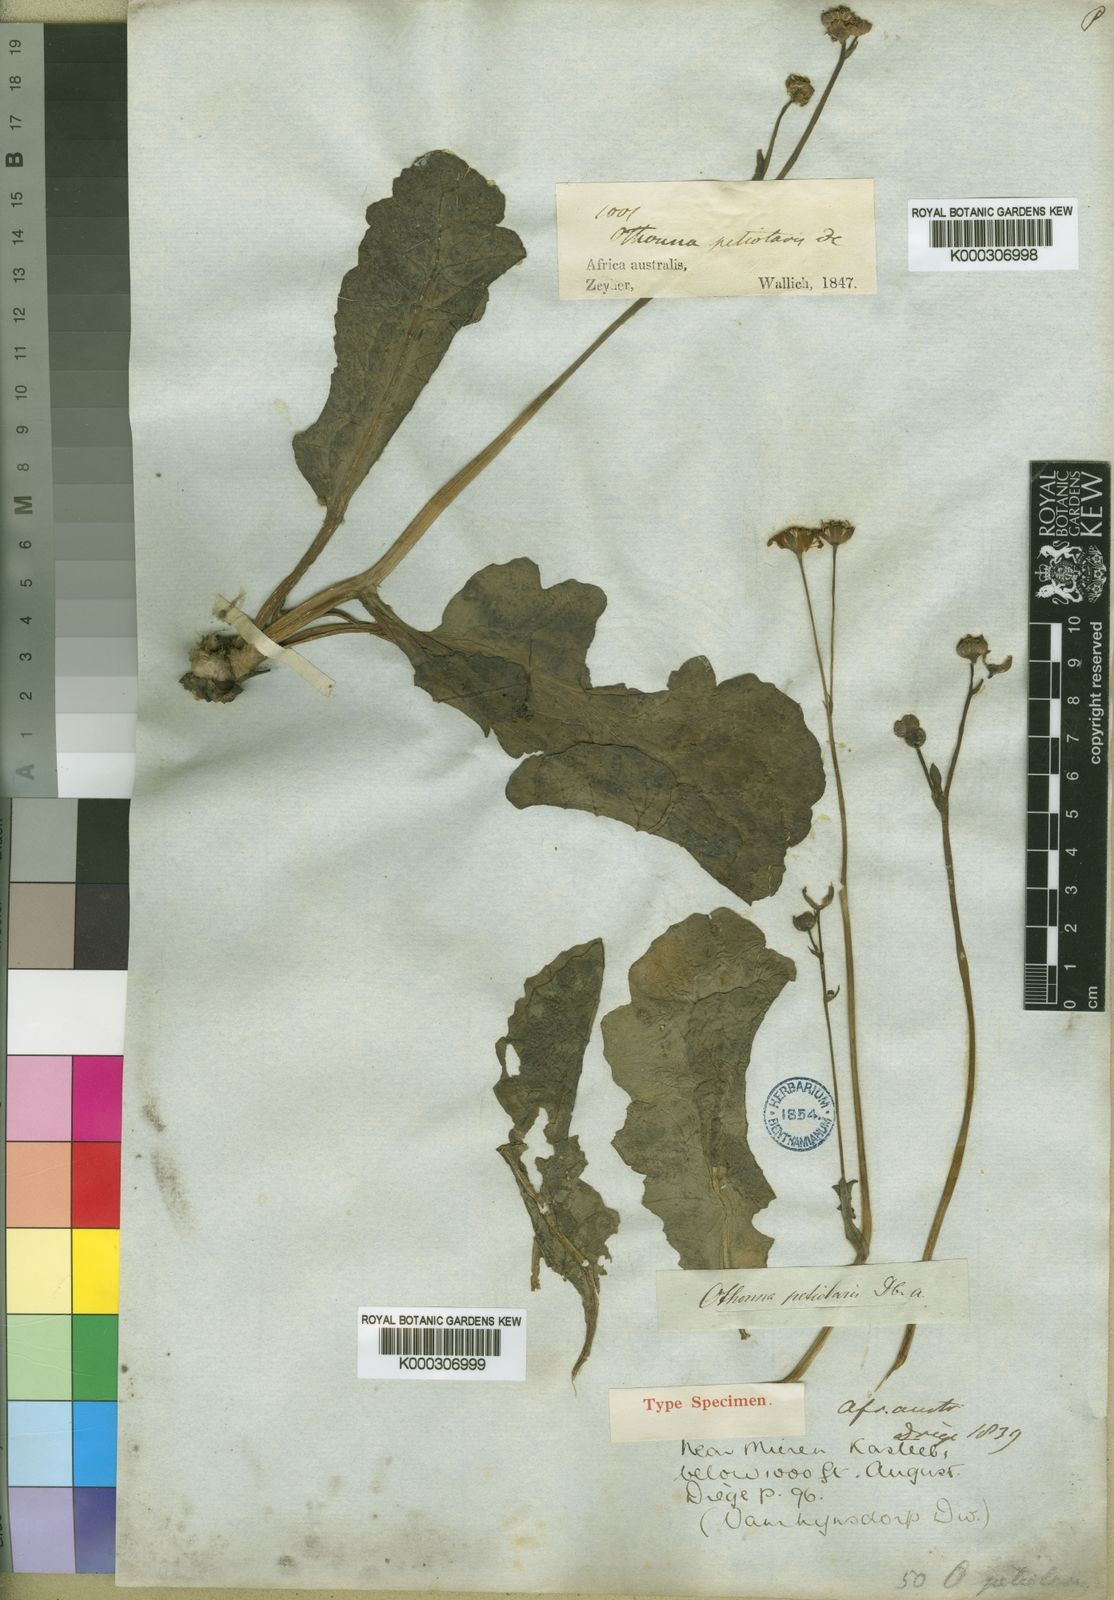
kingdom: Plantae
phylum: Tracheophyta
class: Magnoliopsida
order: Asterales
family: Asteraceae
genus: Othonna
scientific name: Othonna petiolaris
